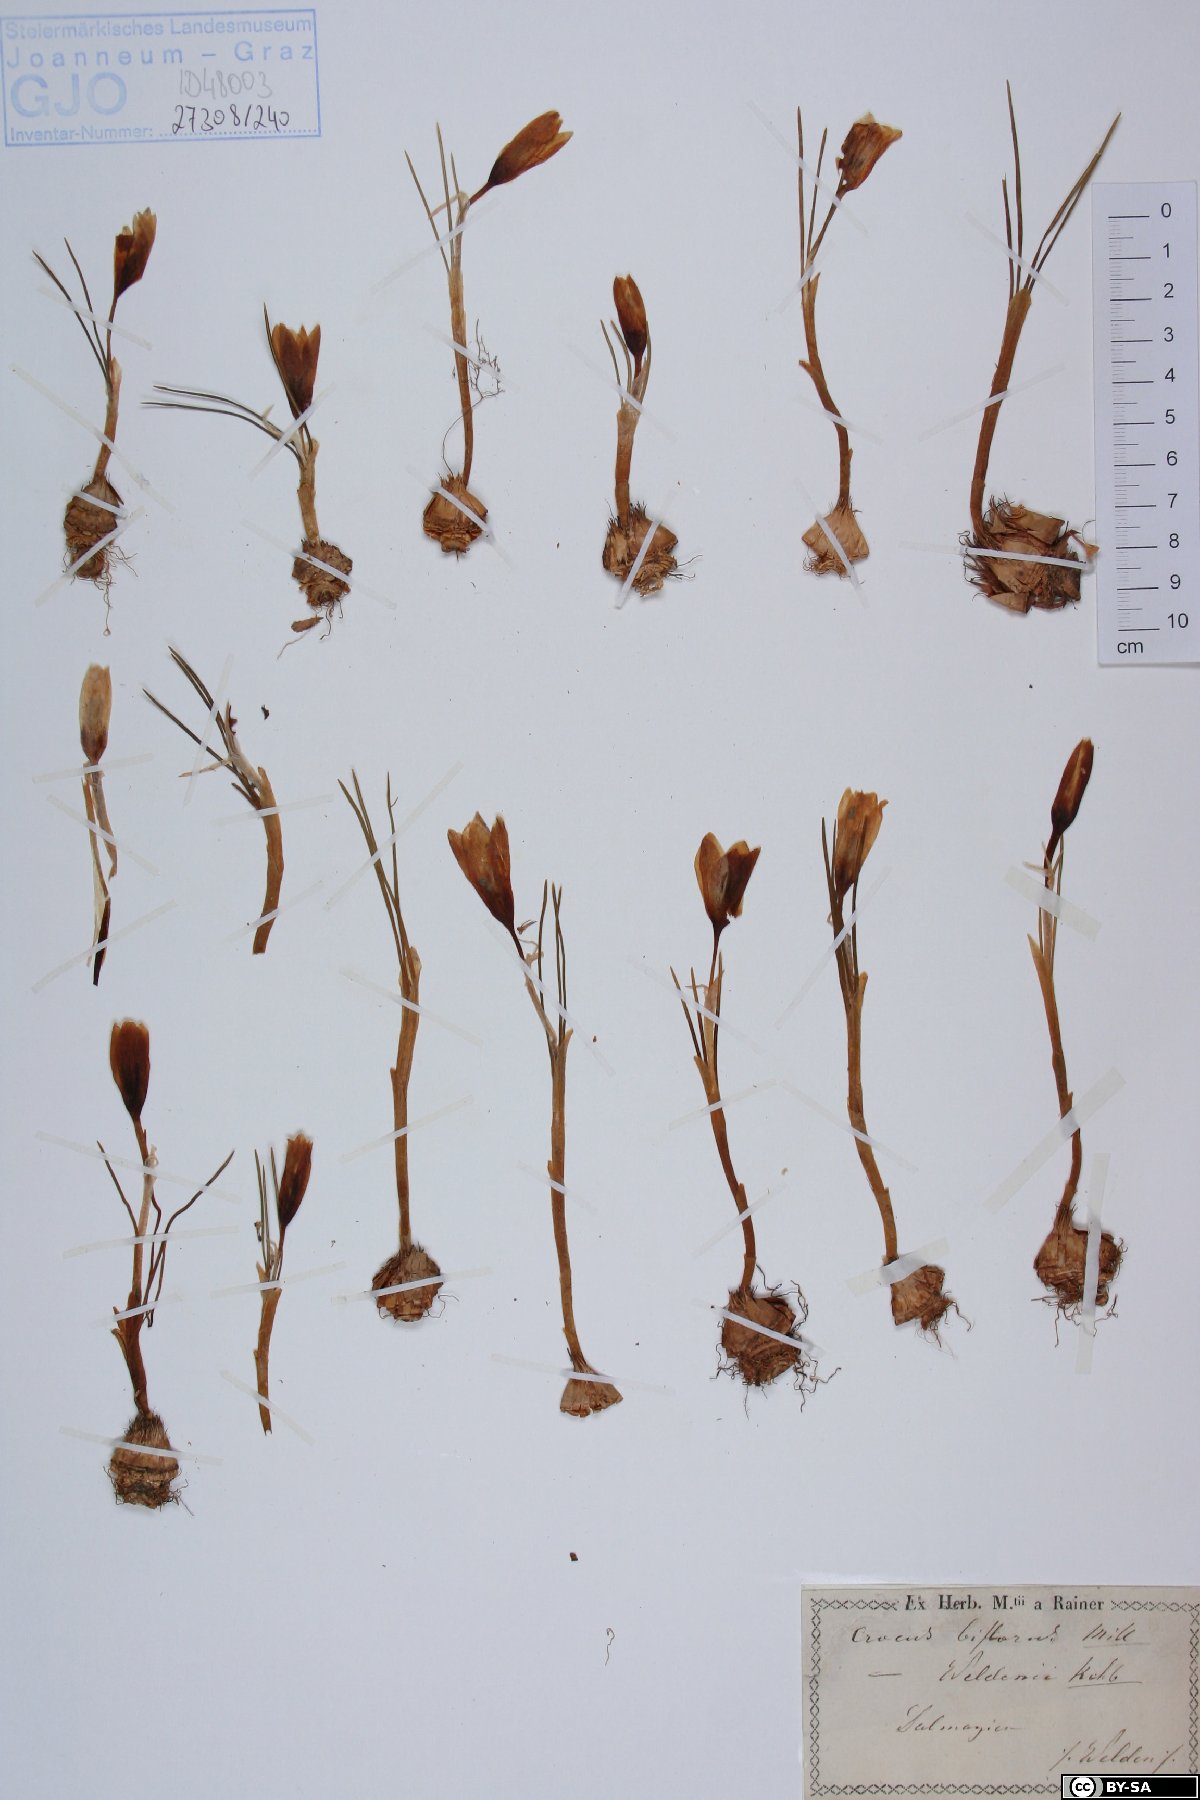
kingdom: Plantae
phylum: Tracheophyta
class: Liliopsida
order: Asparagales
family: Iridaceae
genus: Crocus
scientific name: Crocus weldenii
